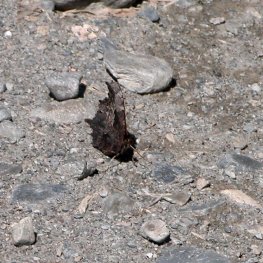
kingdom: Animalia
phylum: Arthropoda
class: Insecta
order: Lepidoptera
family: Nymphalidae
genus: Polygonia
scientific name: Polygonia progne
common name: Gray Comma
